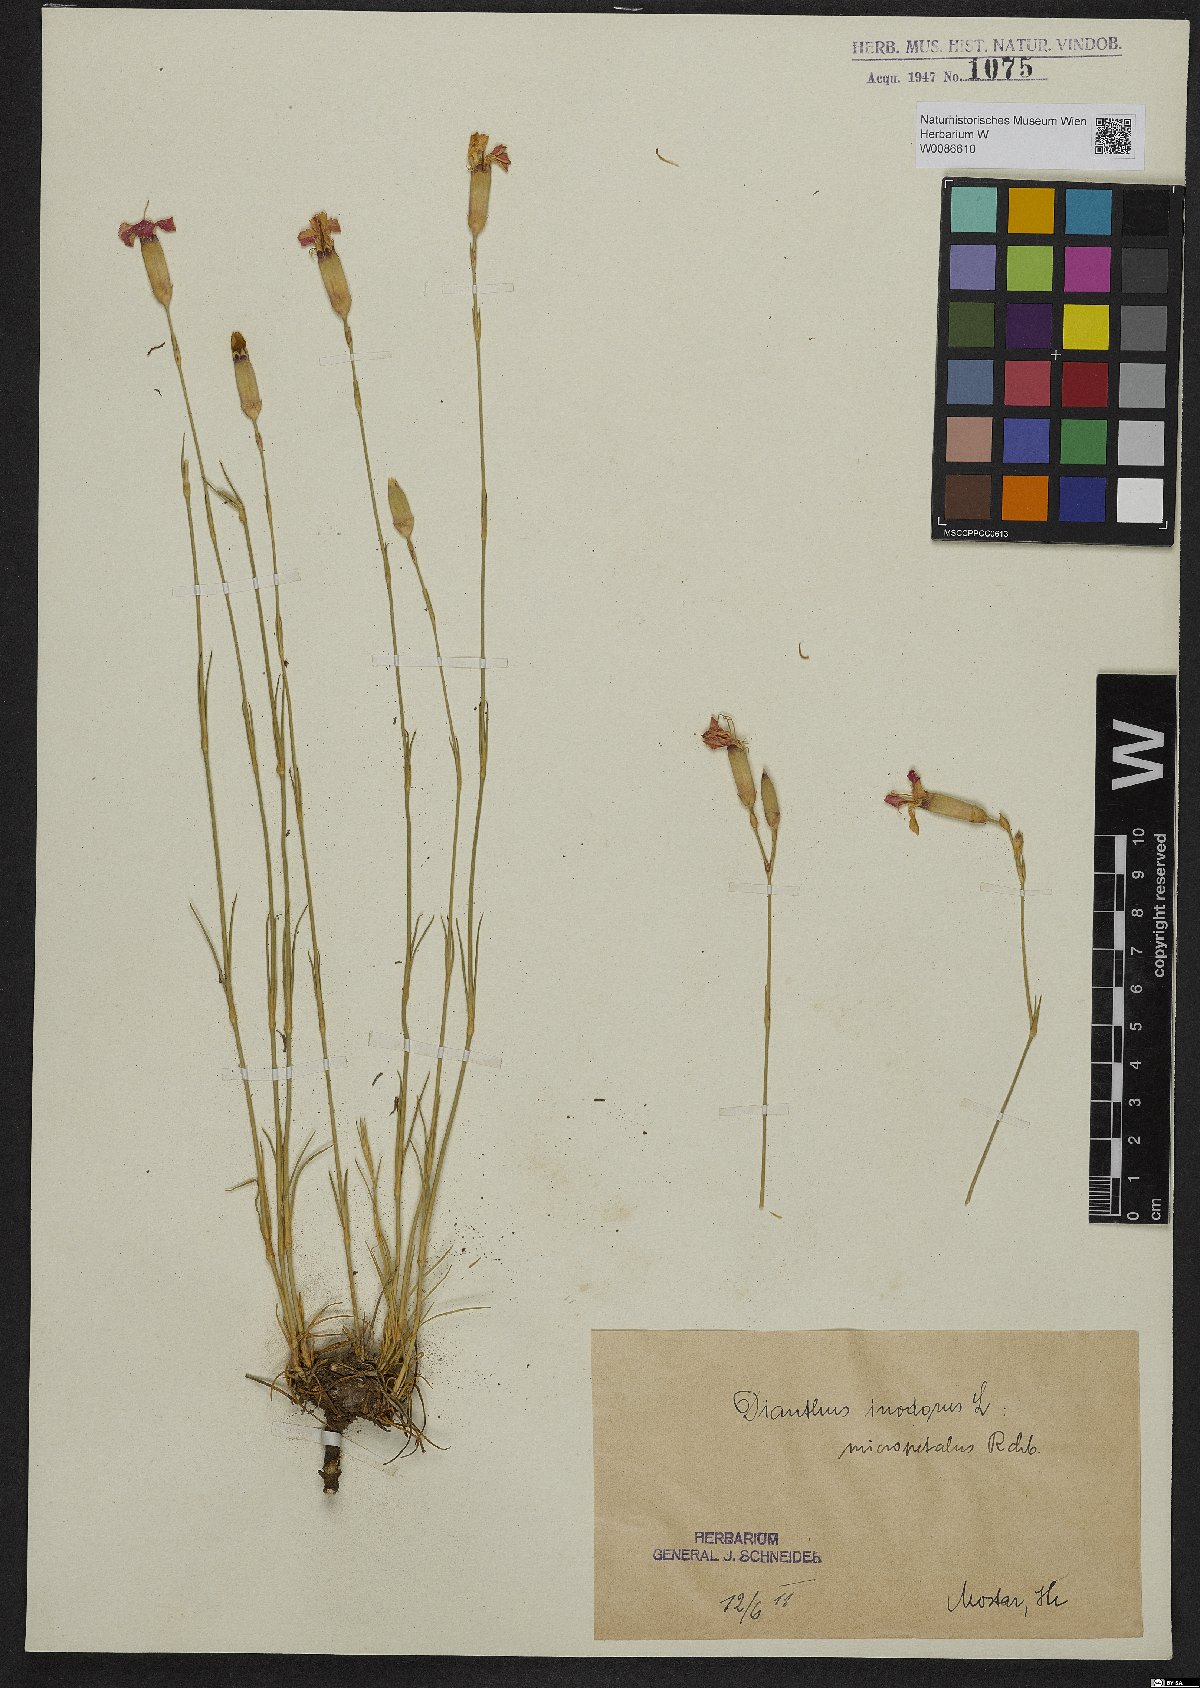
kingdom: Plantae
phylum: Tracheophyta
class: Magnoliopsida
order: Caryophyllales
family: Caryophyllaceae
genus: Dianthus
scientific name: Dianthus sylvestris
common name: Wood pink
